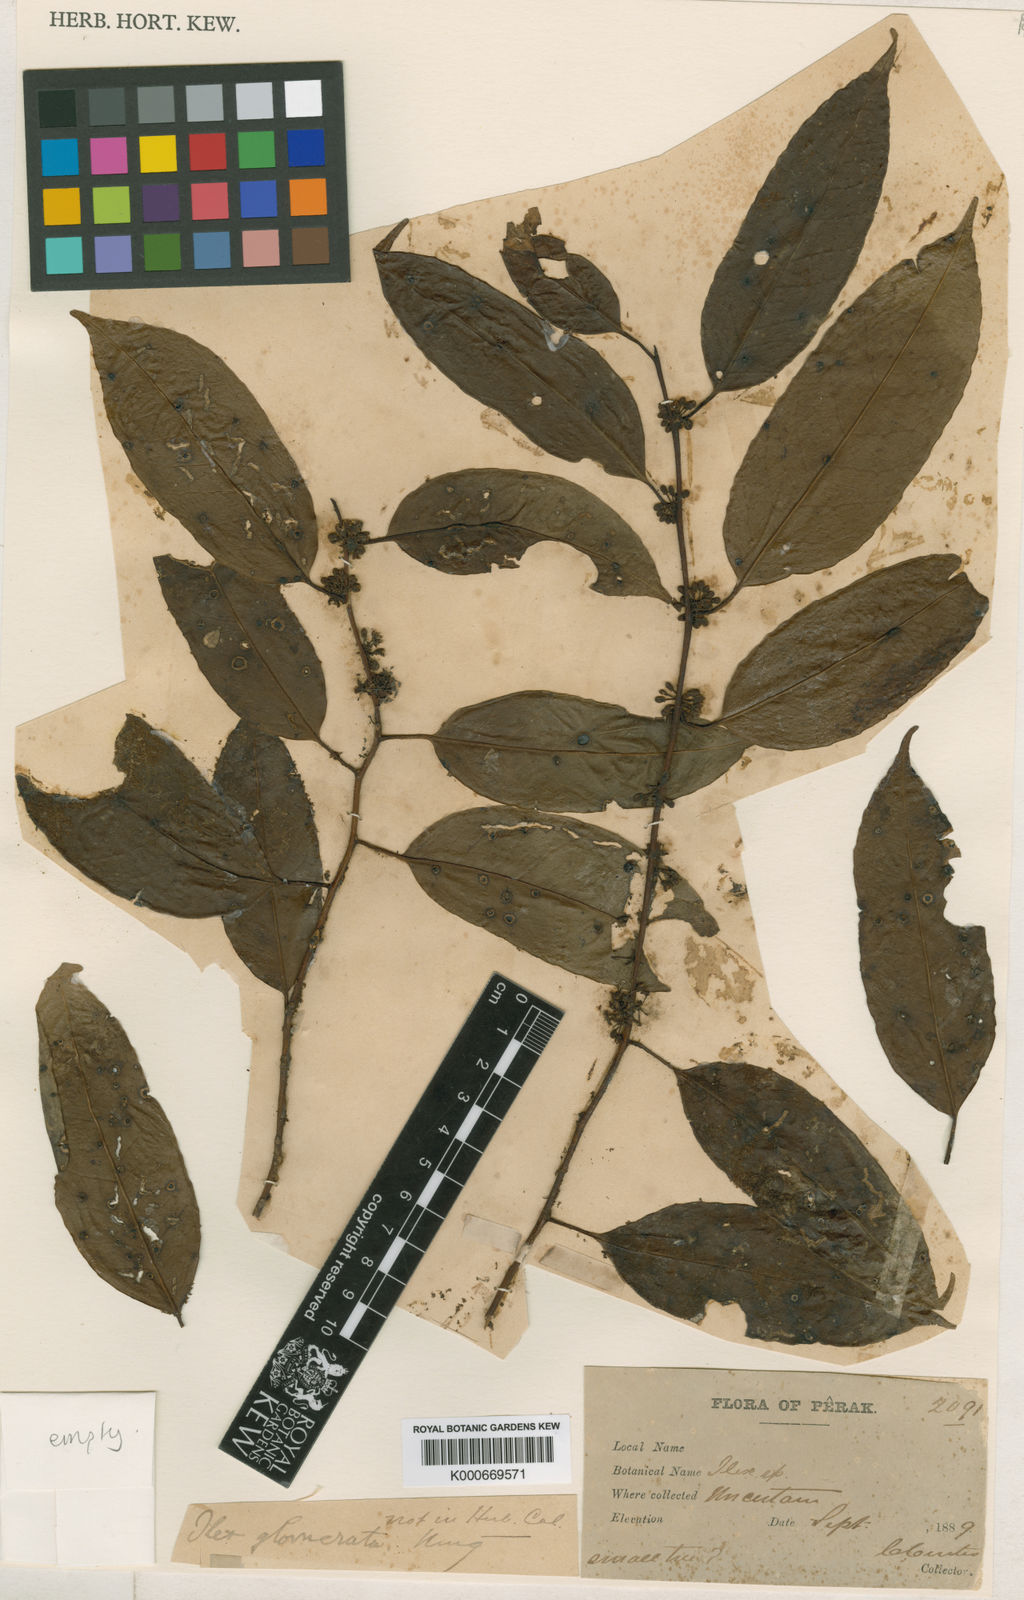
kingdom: Plantae
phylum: Tracheophyta
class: Magnoliopsida
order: Aquifoliales
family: Aquifoliaceae
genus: Ilex
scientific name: Ilex glomerata
